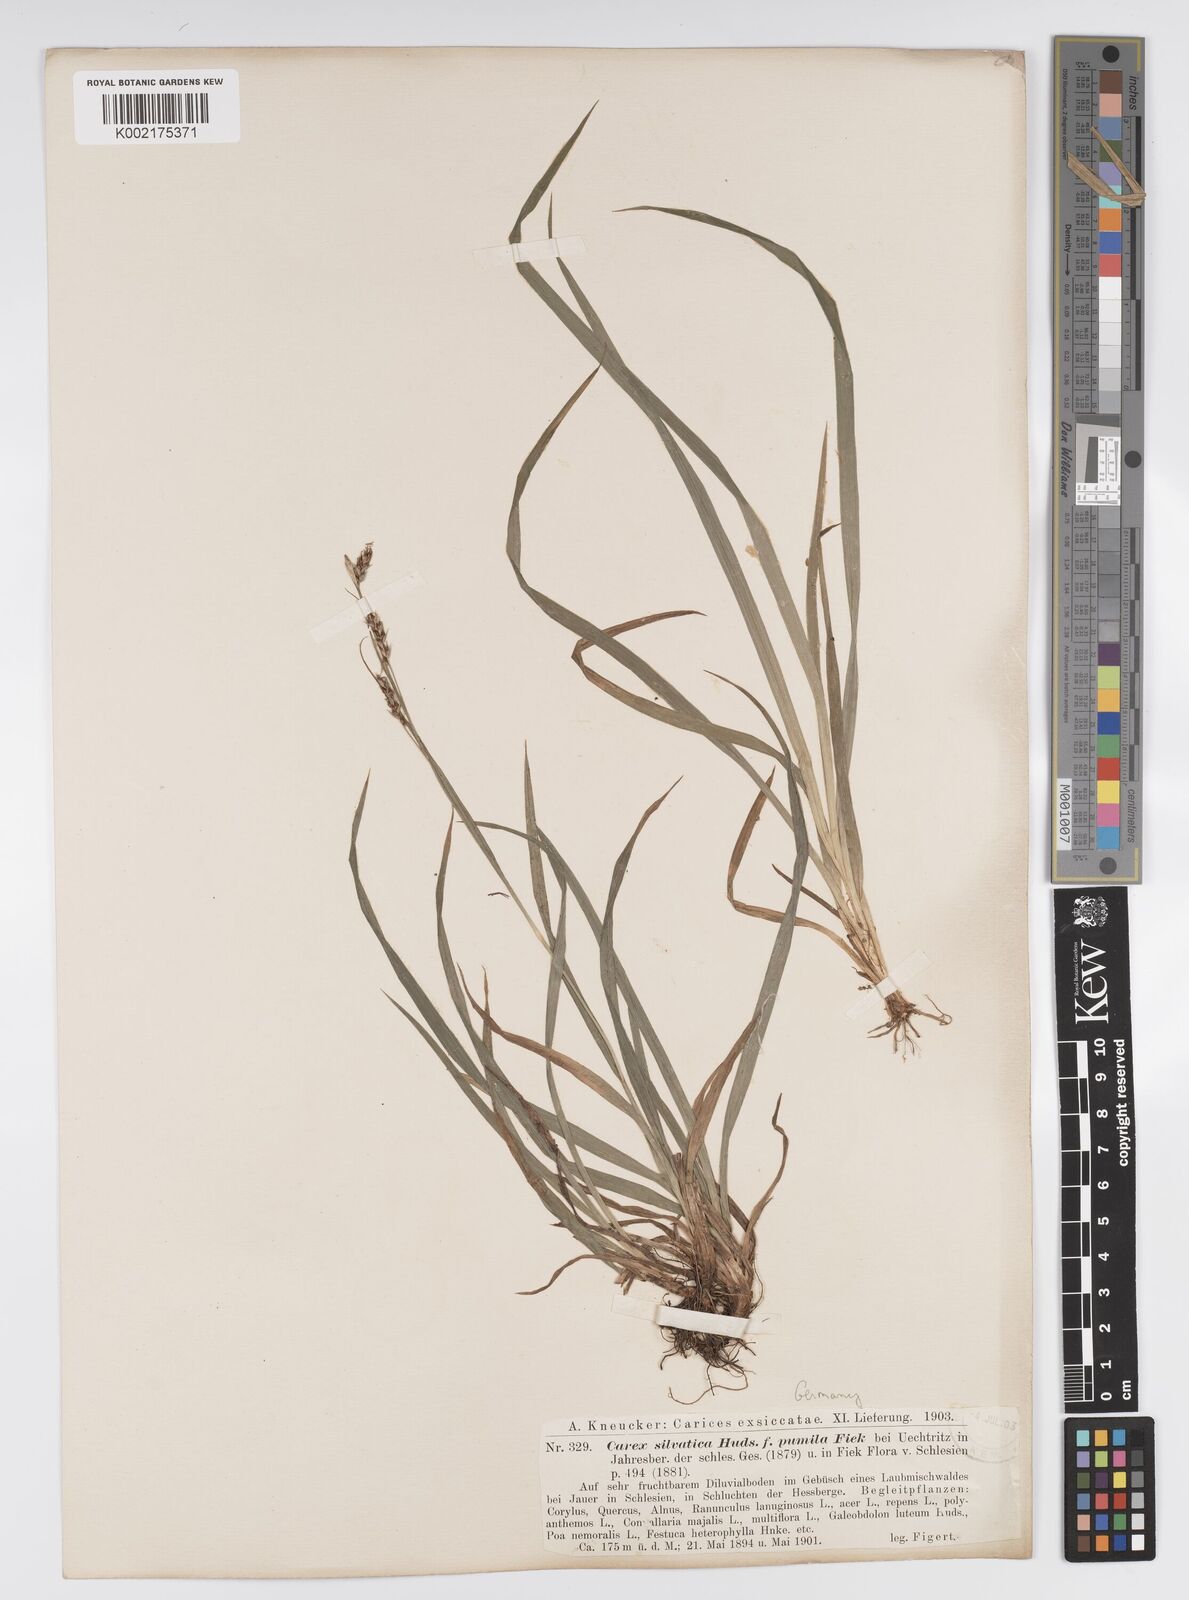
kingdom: Plantae
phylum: Tracheophyta
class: Liliopsida
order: Poales
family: Cyperaceae
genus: Carex
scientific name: Carex sylvatica
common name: Wood-sedge
